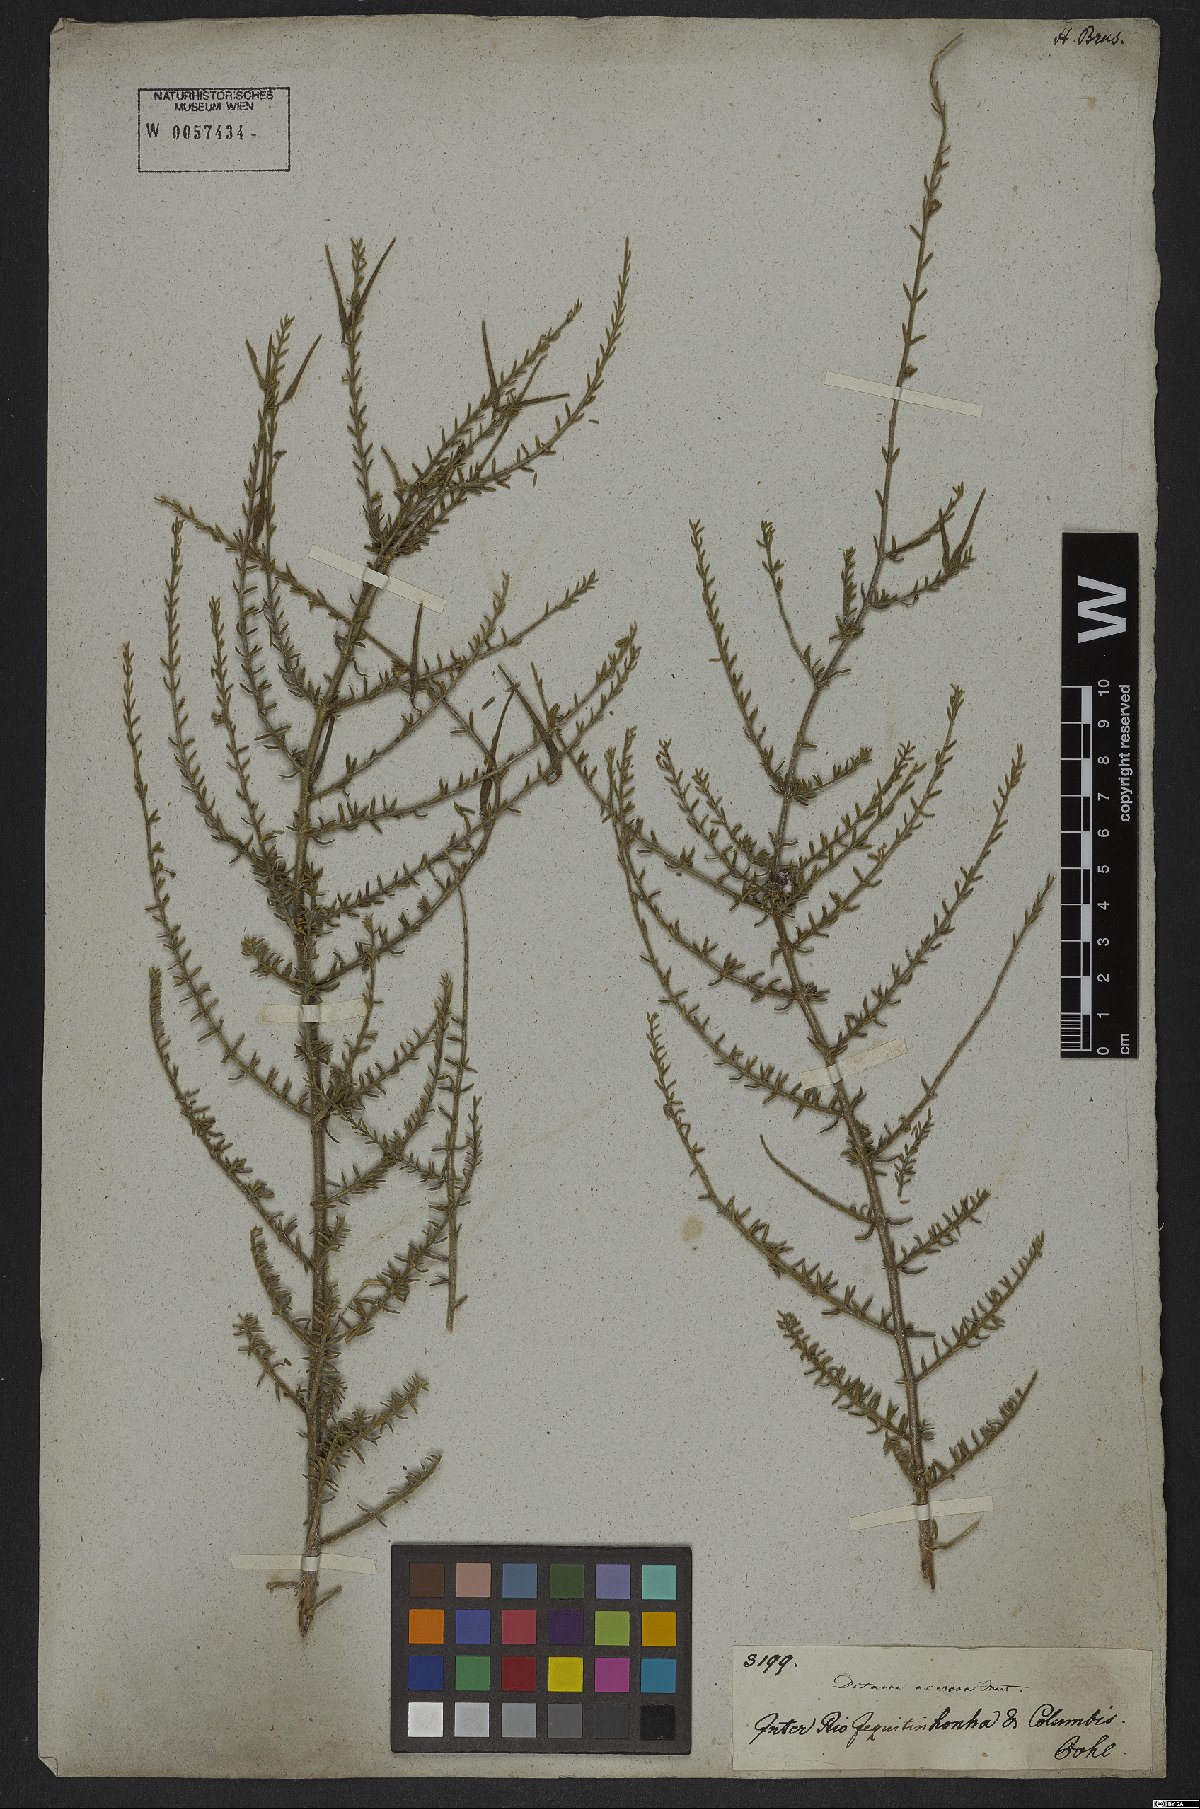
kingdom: Plantae
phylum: Tracheophyta
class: Magnoliopsida
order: Gentianales
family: Apocynaceae
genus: Minaria
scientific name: Minaria acerosa
